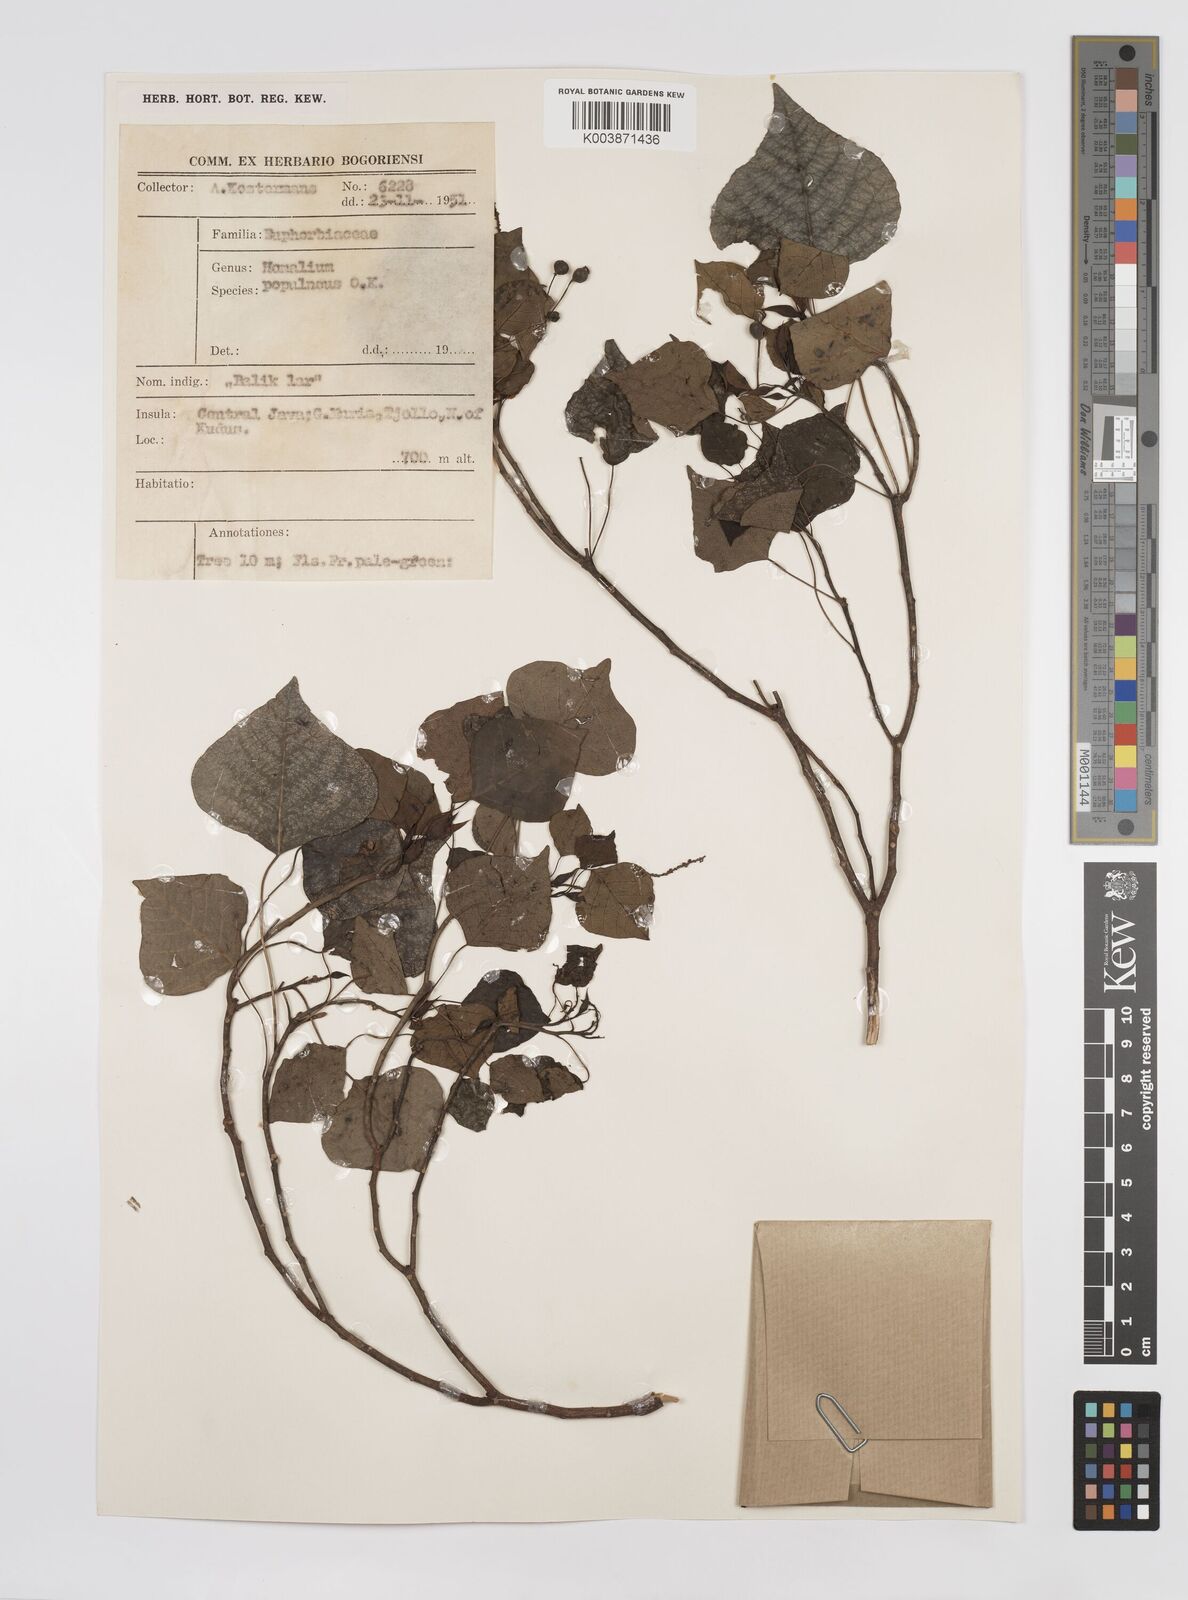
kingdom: Plantae
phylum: Tracheophyta
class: Magnoliopsida
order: Malpighiales
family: Euphorbiaceae
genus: Homalanthus
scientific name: Homalanthus populneus
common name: Spurge
